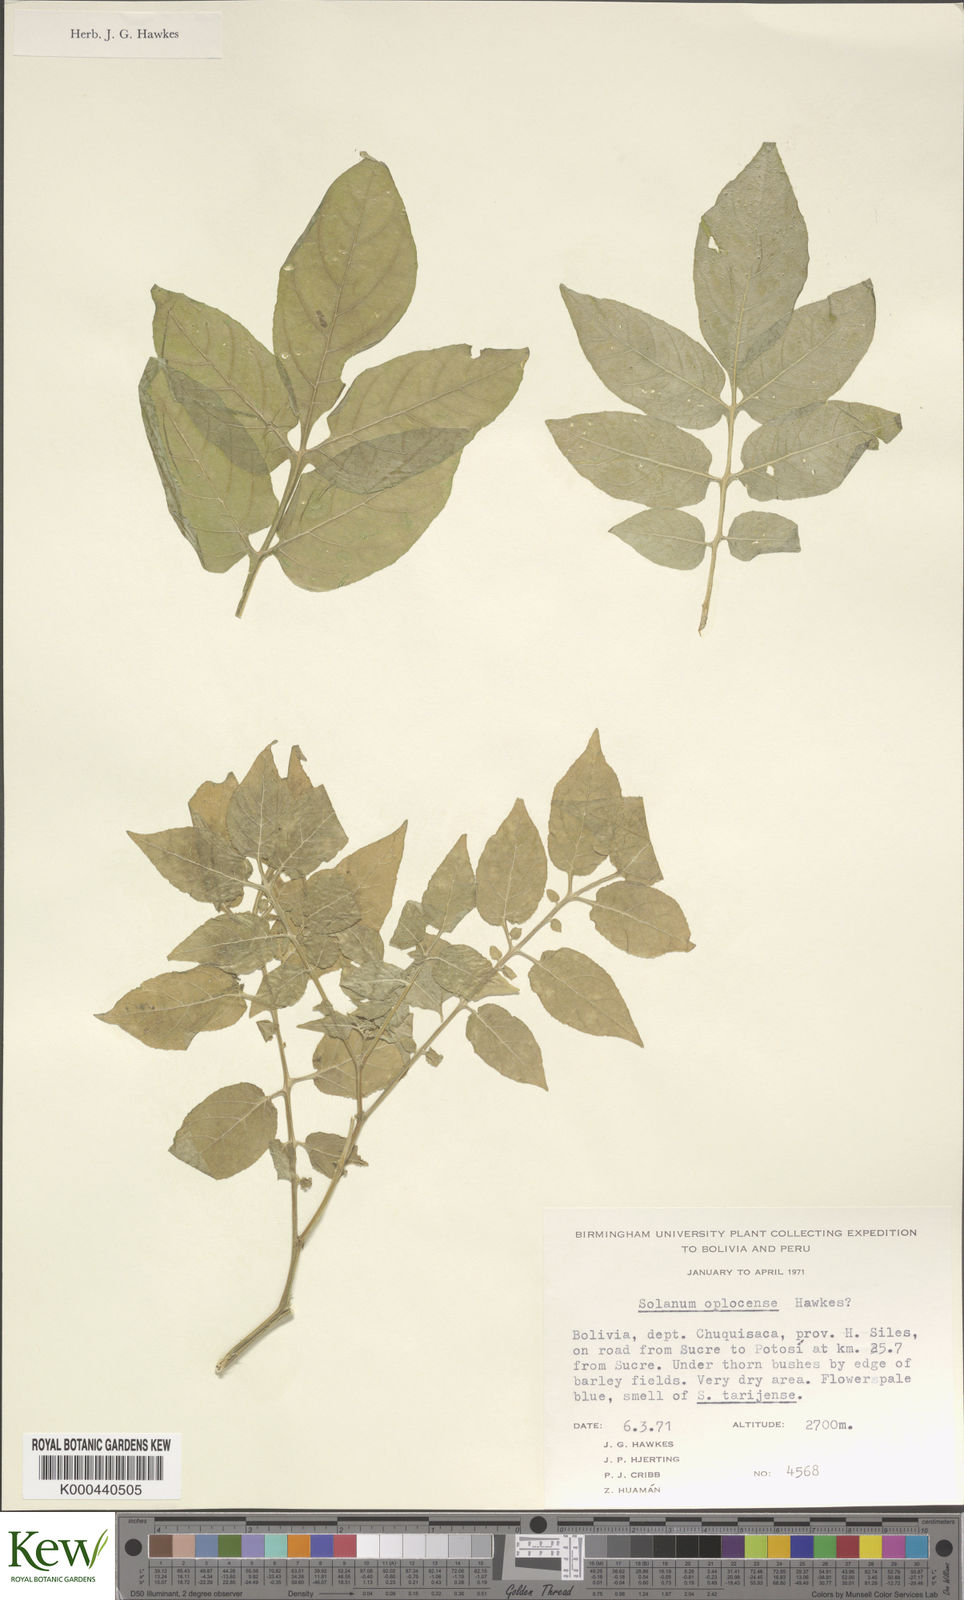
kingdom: Plantae
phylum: Tracheophyta
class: Magnoliopsida
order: Solanales
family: Solanaceae
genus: Solanum
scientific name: Solanum brevicaule
